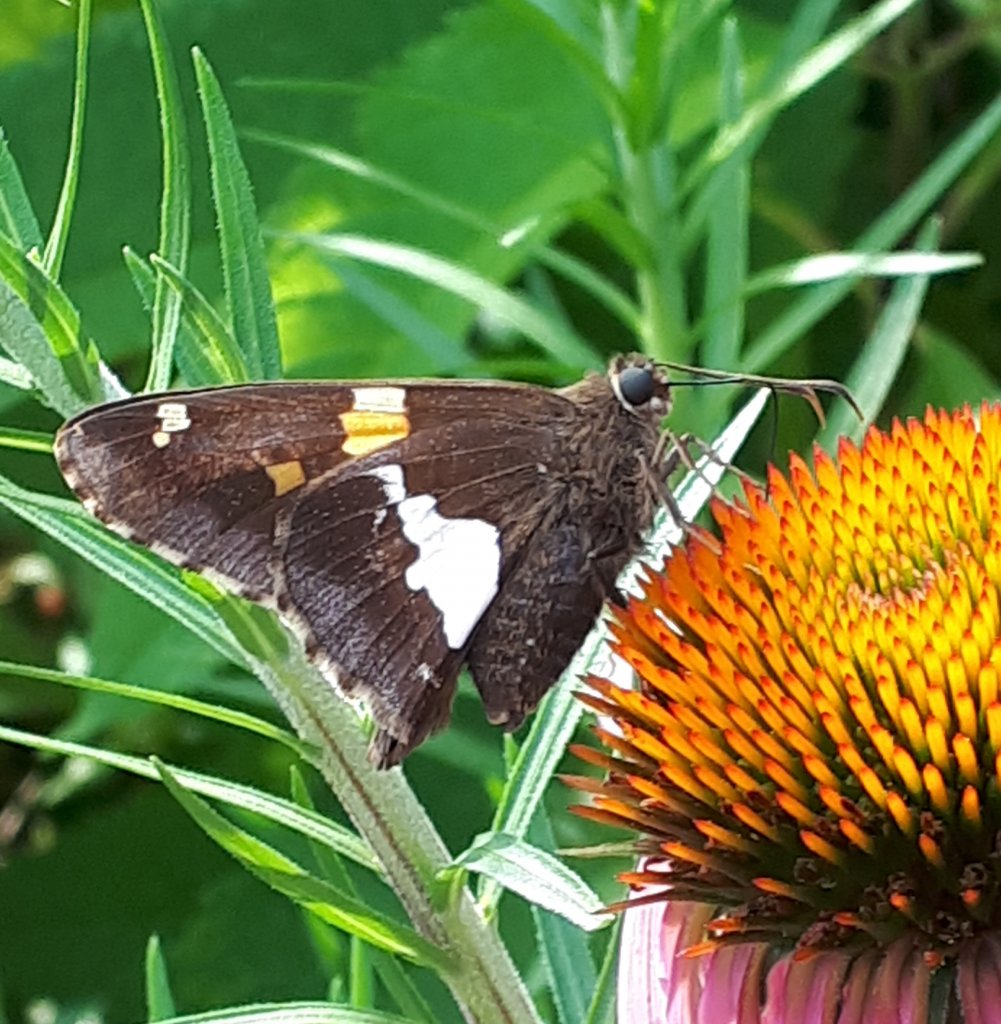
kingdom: Animalia
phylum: Arthropoda
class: Insecta
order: Lepidoptera
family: Hesperiidae
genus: Epargyreus
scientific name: Epargyreus clarus
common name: Silver-spotted Skipper
